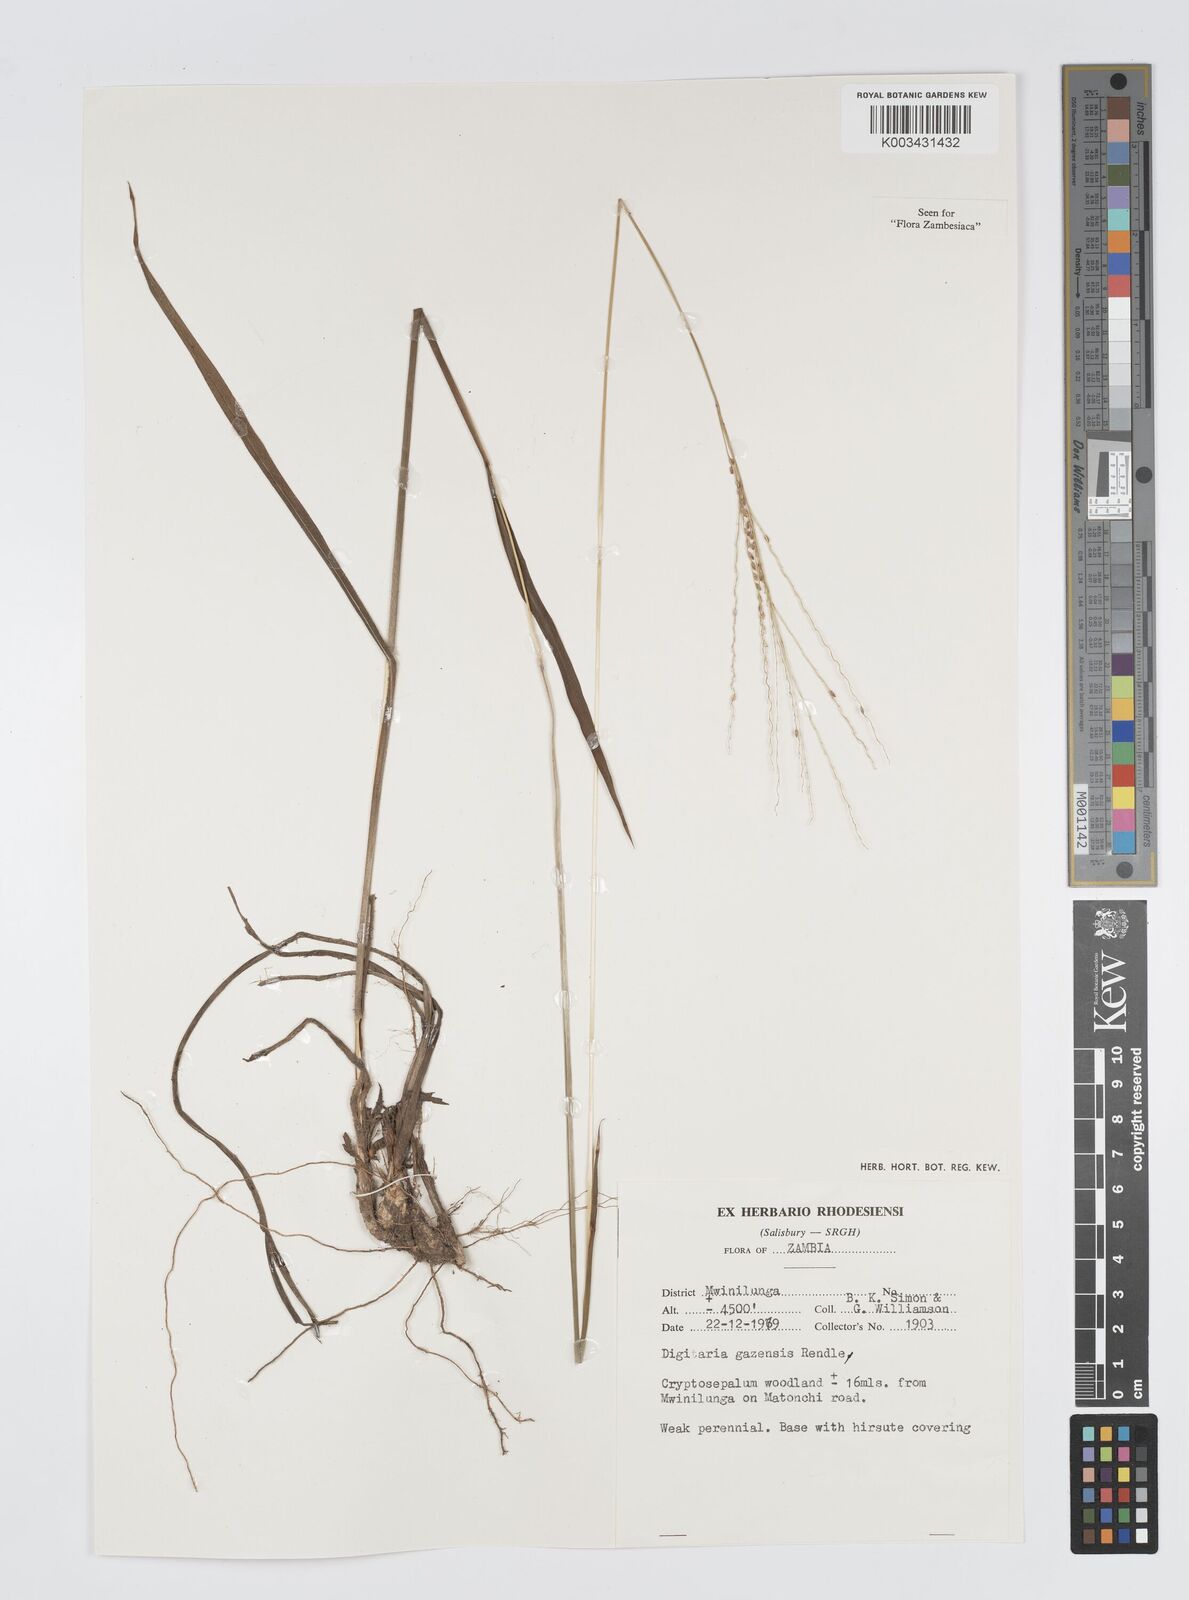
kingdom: Plantae
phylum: Tracheophyta
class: Liliopsida
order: Poales
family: Poaceae
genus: Digitaria
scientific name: Digitaria gazensis
